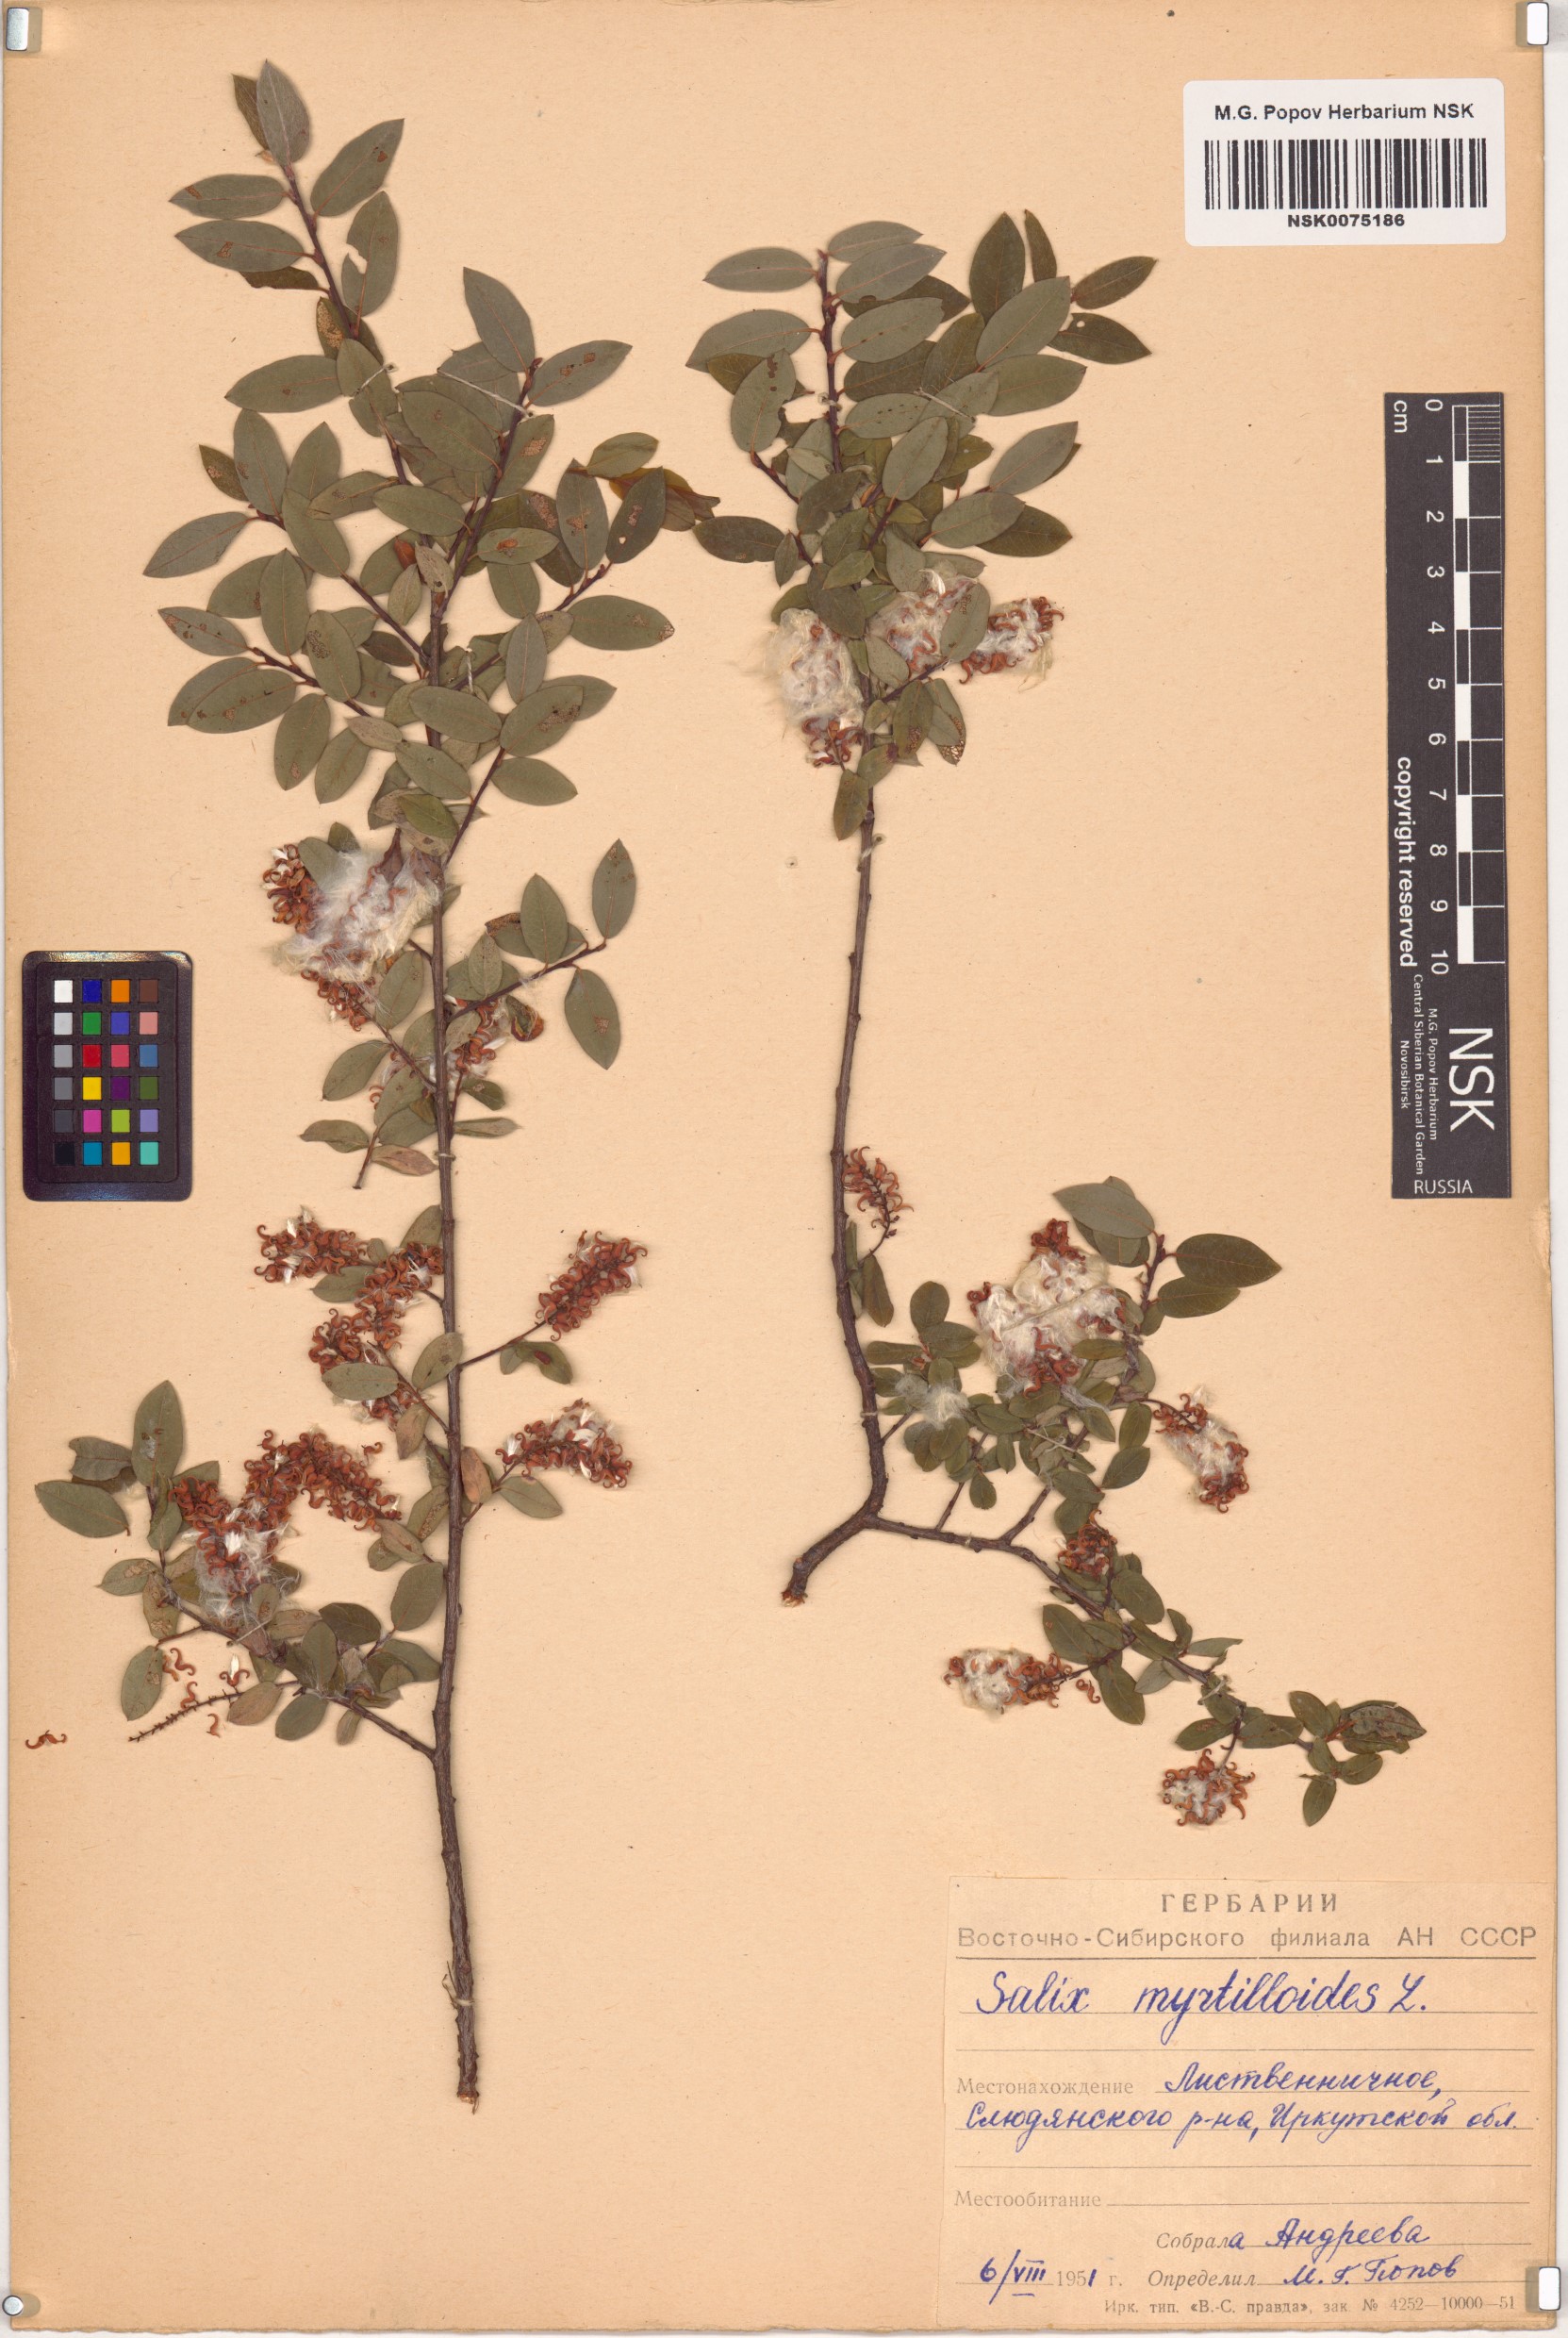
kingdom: Plantae
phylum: Tracheophyta
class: Magnoliopsida
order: Malpighiales
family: Salicaceae
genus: Salix
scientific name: Salix myrtilloides
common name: Myrtle-leaved willow
